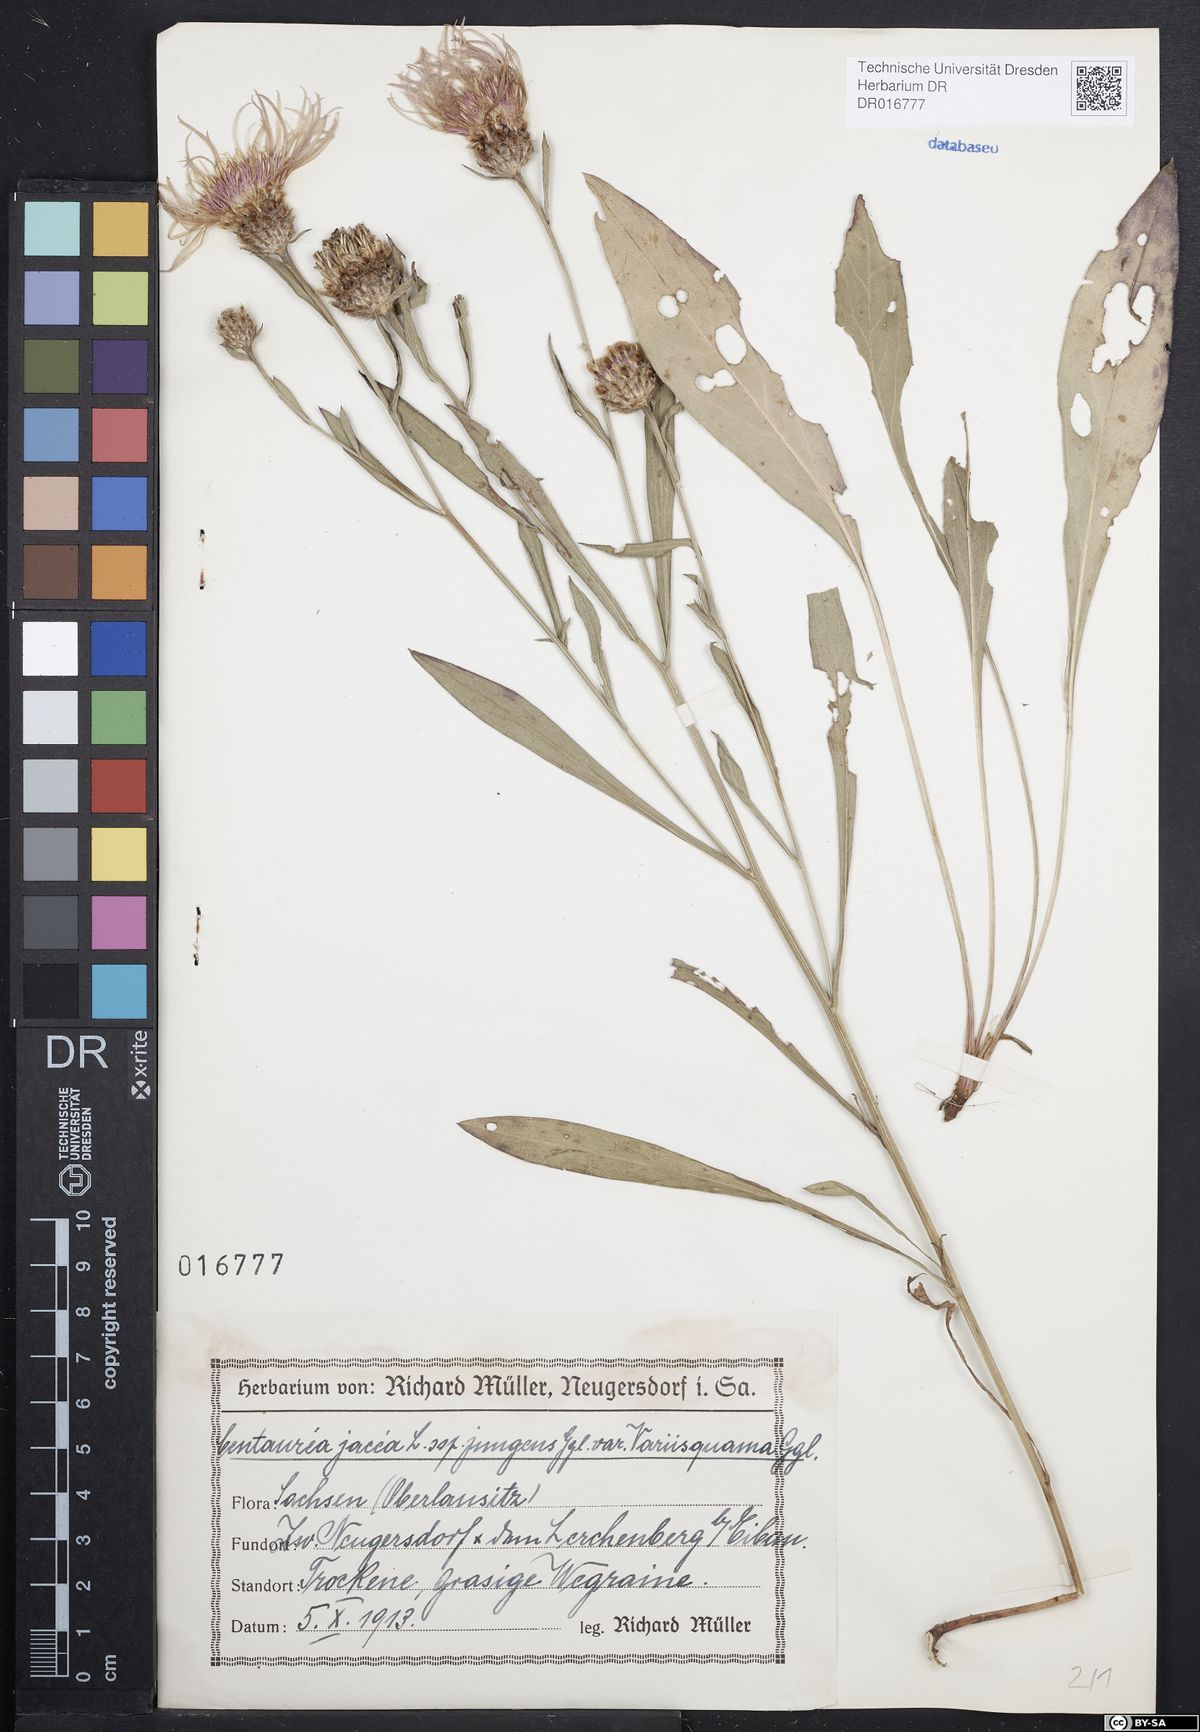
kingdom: Plantae
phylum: Tracheophyta
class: Magnoliopsida
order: Asterales
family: Asteraceae
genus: Centaurea
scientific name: Centaurea jacea
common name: Brown knapweed
